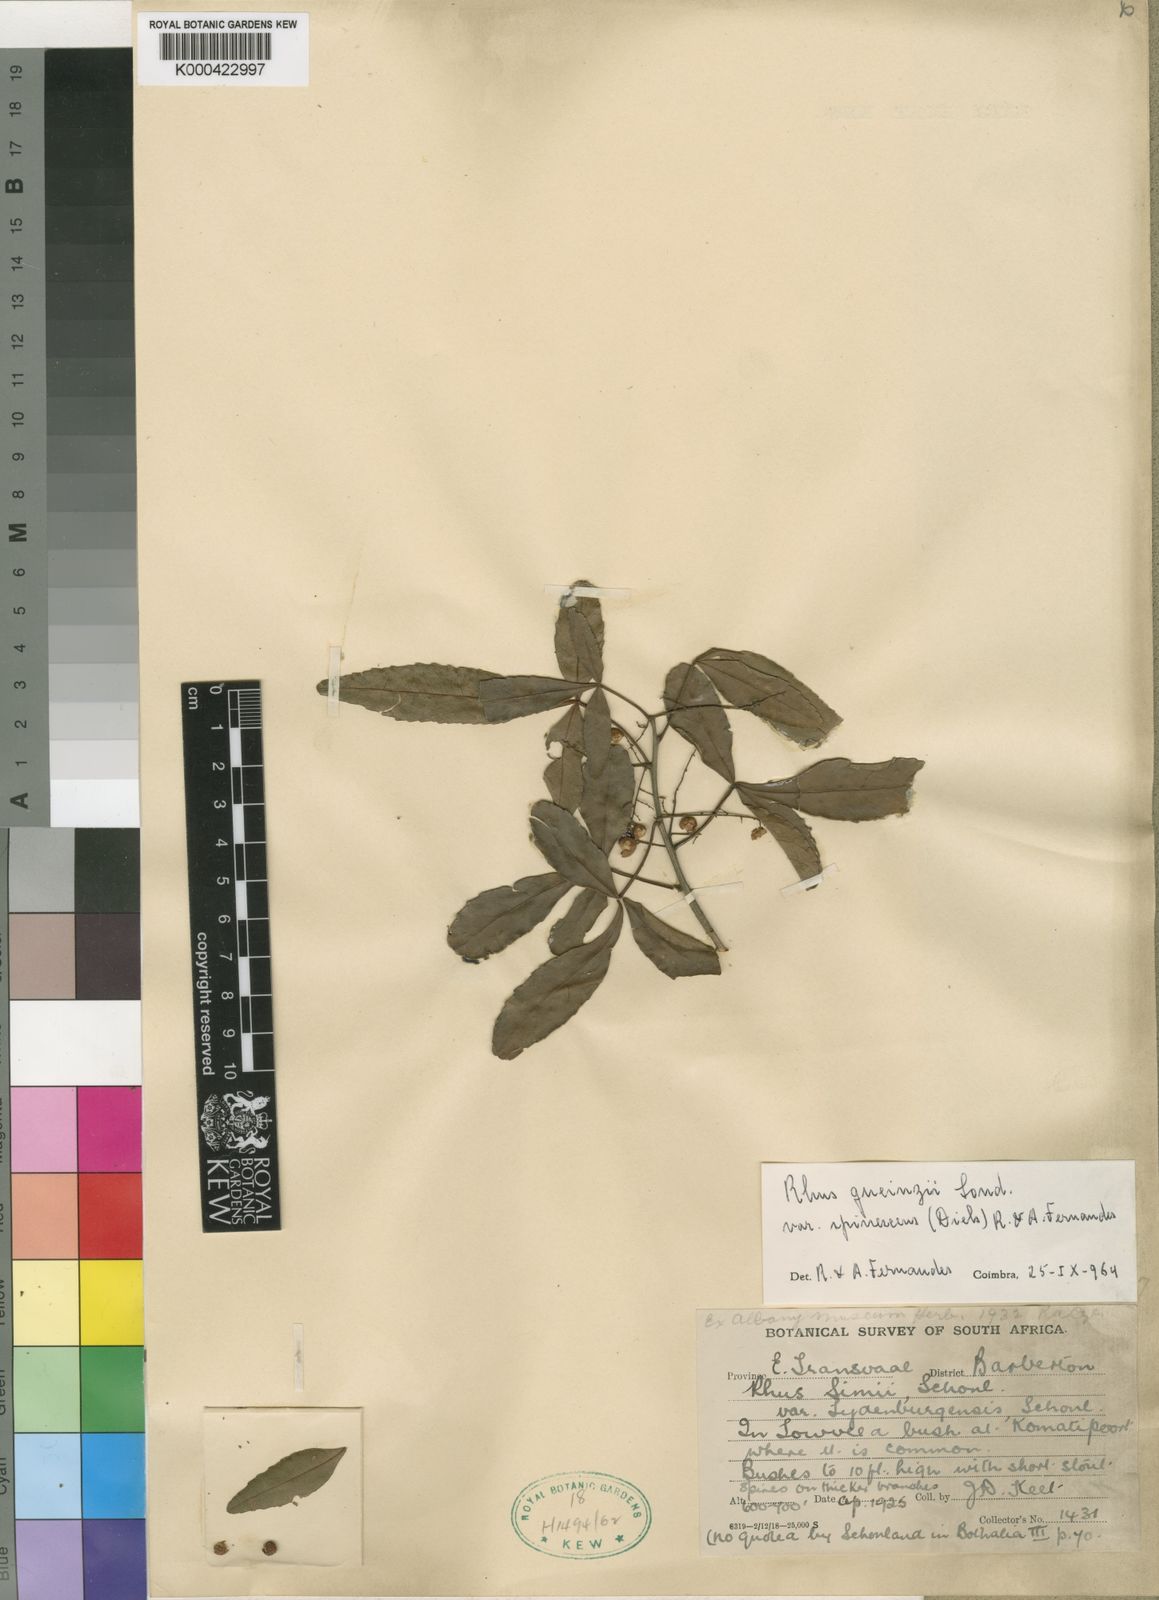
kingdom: Plantae
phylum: Tracheophyta
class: Magnoliopsida
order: Sapindales
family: Anacardiaceae
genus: Rhus
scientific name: Rhus
